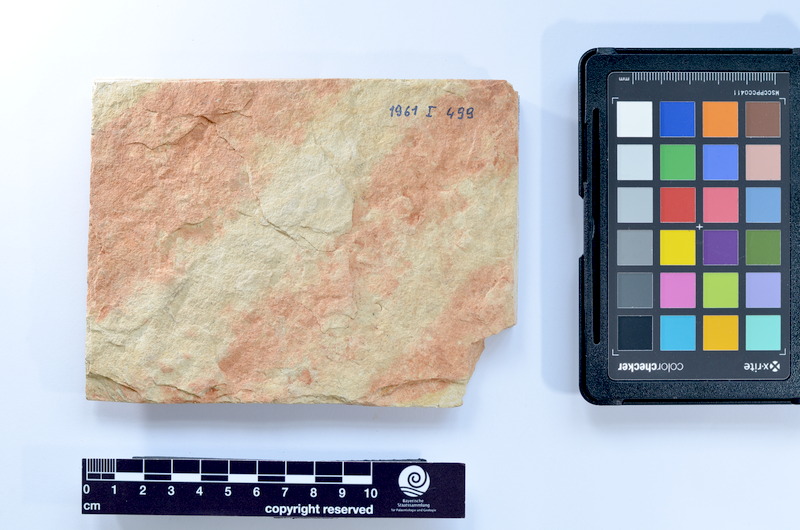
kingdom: Animalia
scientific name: Animalia
